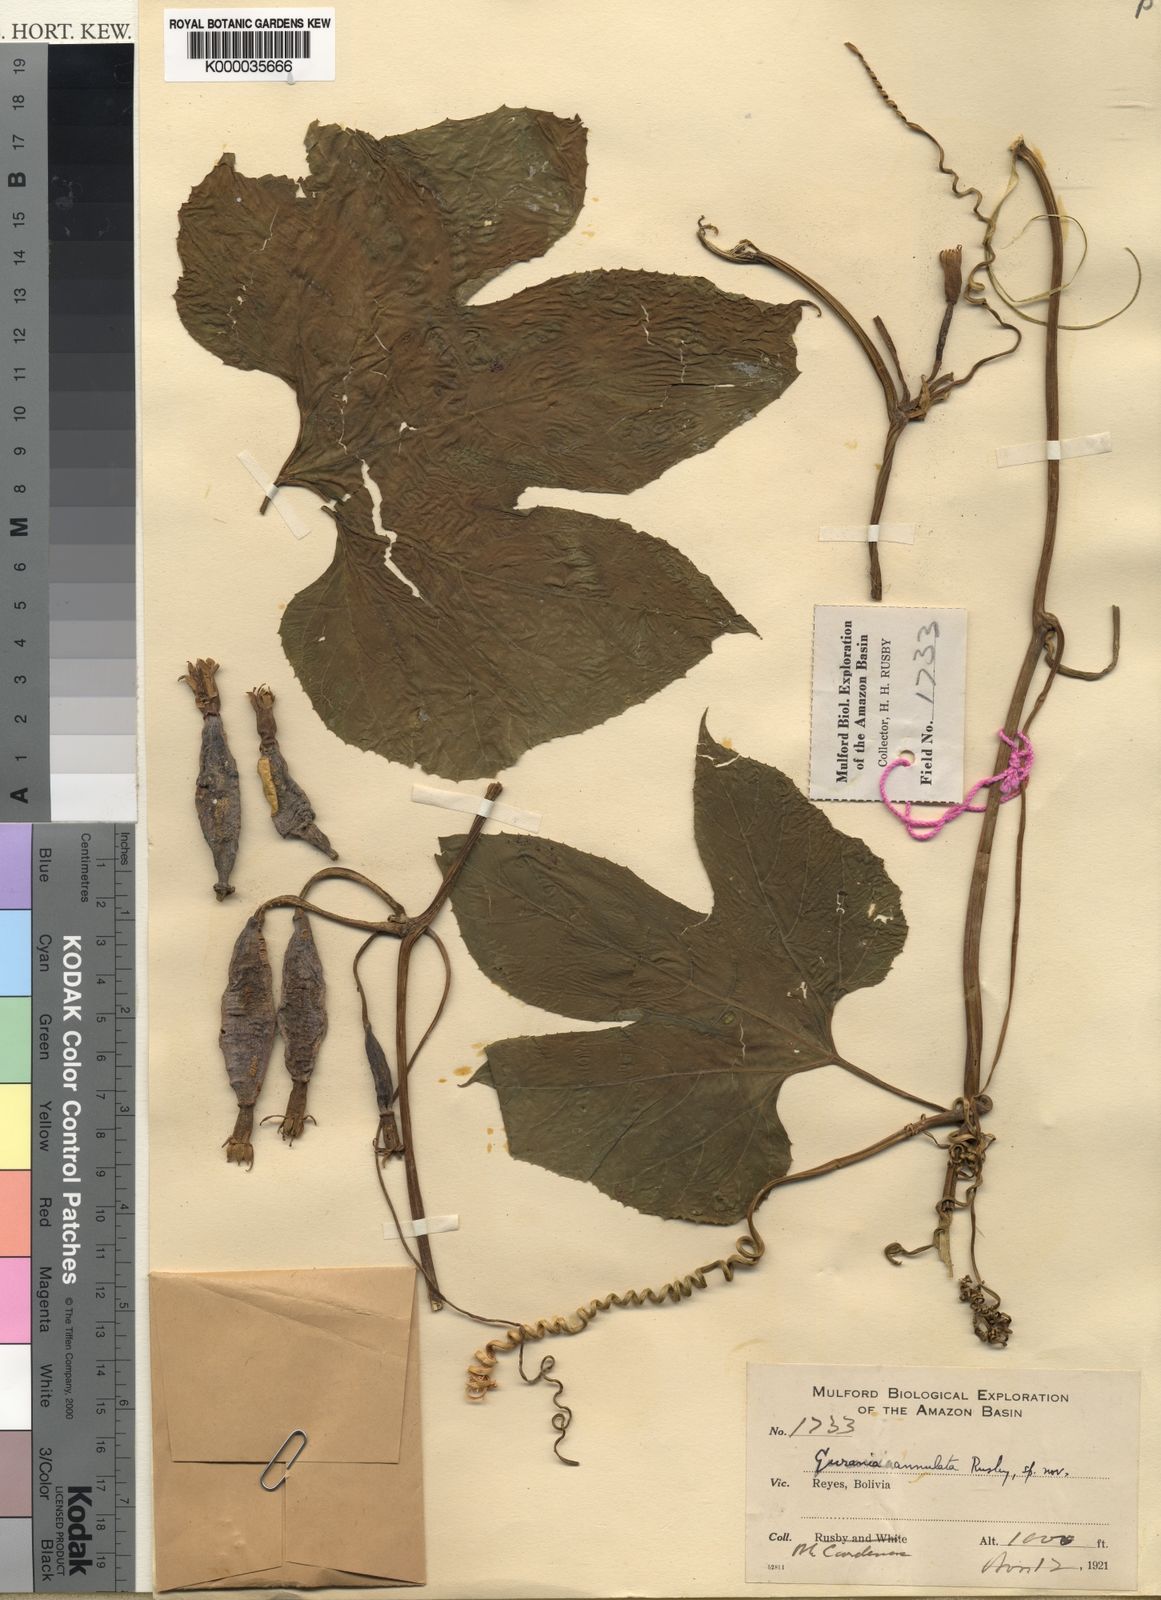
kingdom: Plantae
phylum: Tracheophyta
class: Magnoliopsida
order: Cucurbitales
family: Cucurbitaceae
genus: Gurania
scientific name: Gurania lobata
